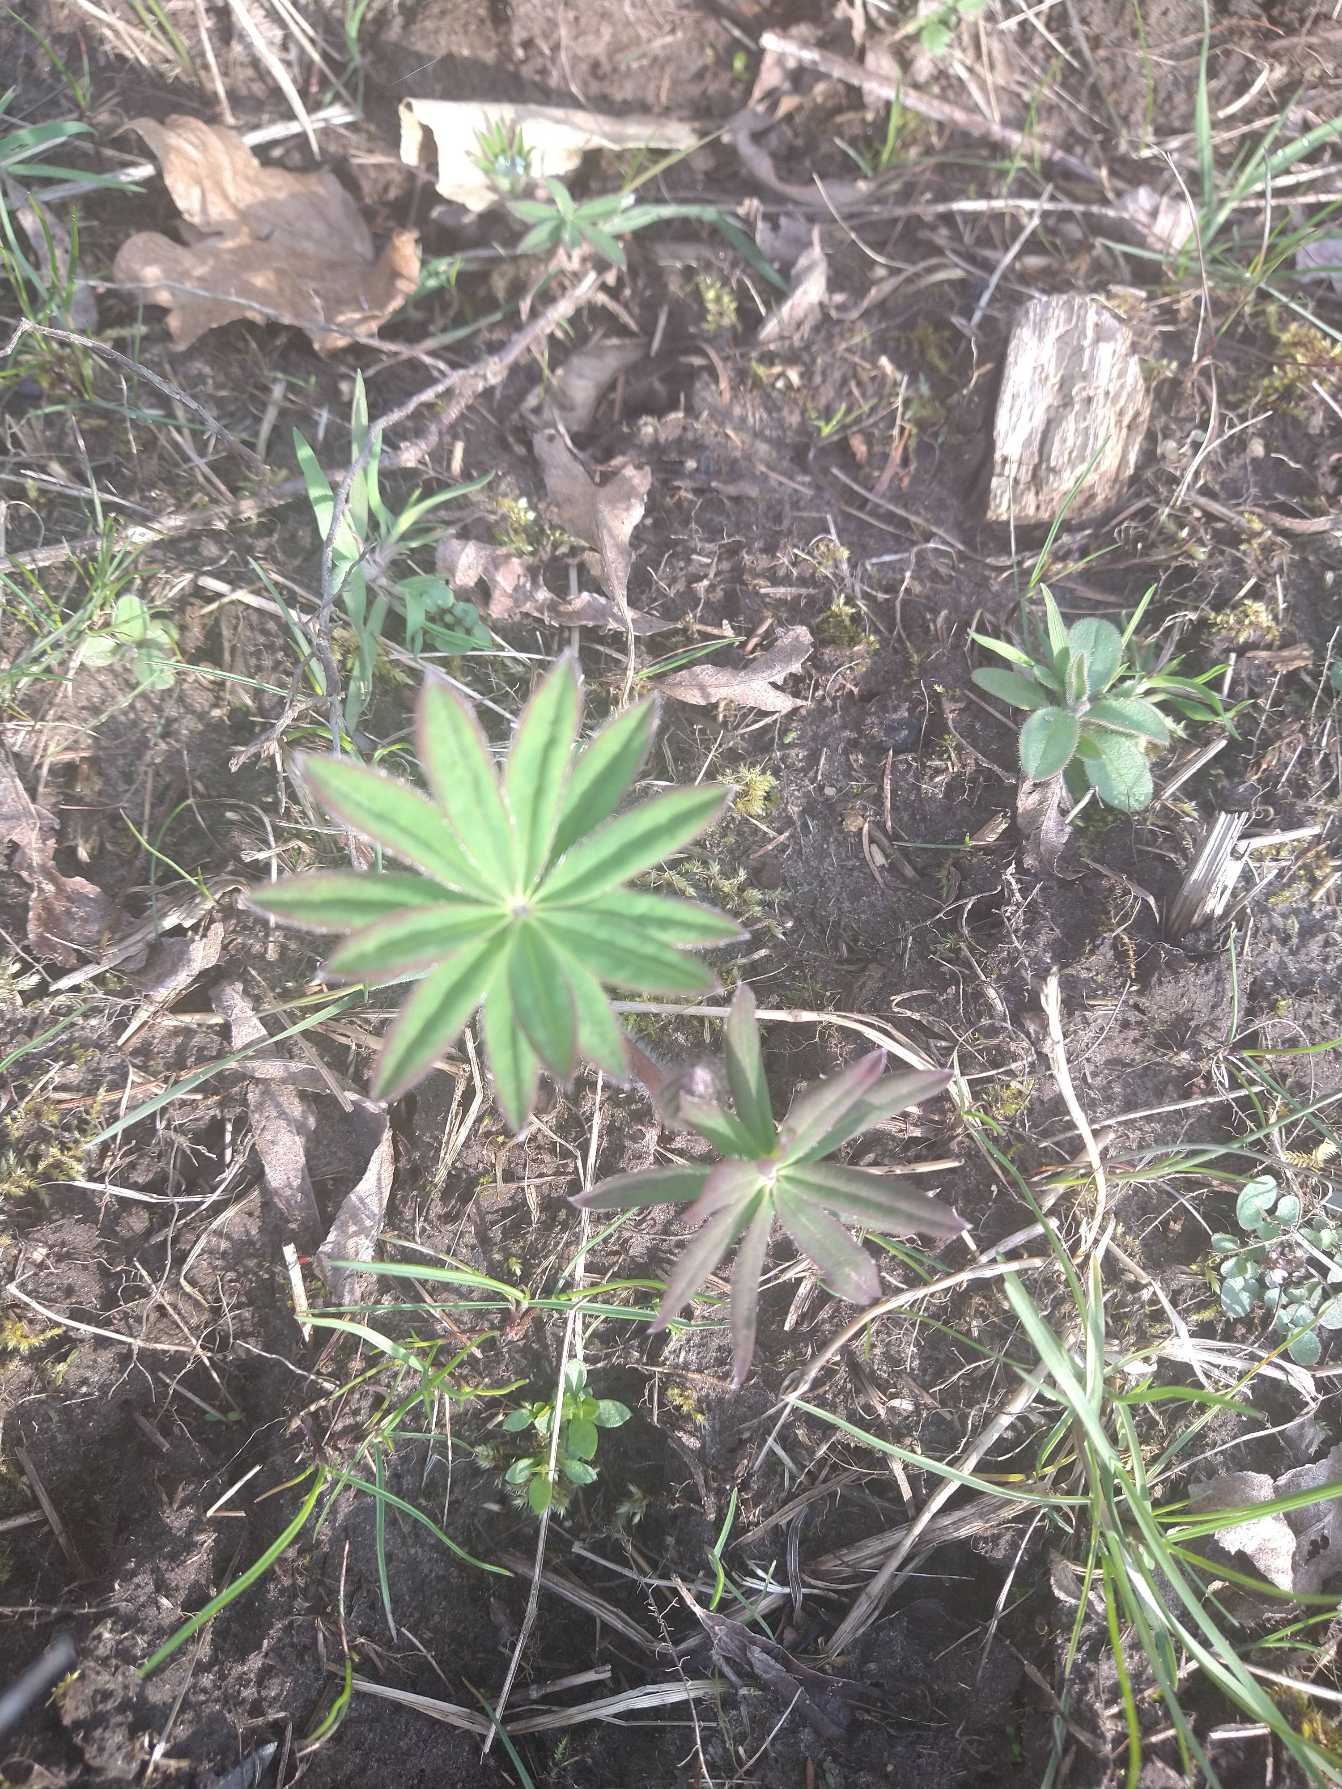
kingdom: Plantae
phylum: Tracheophyta
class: Magnoliopsida
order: Fabales
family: Fabaceae
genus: Lupinus
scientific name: Lupinus polyphyllus
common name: Mangebladet lupin
